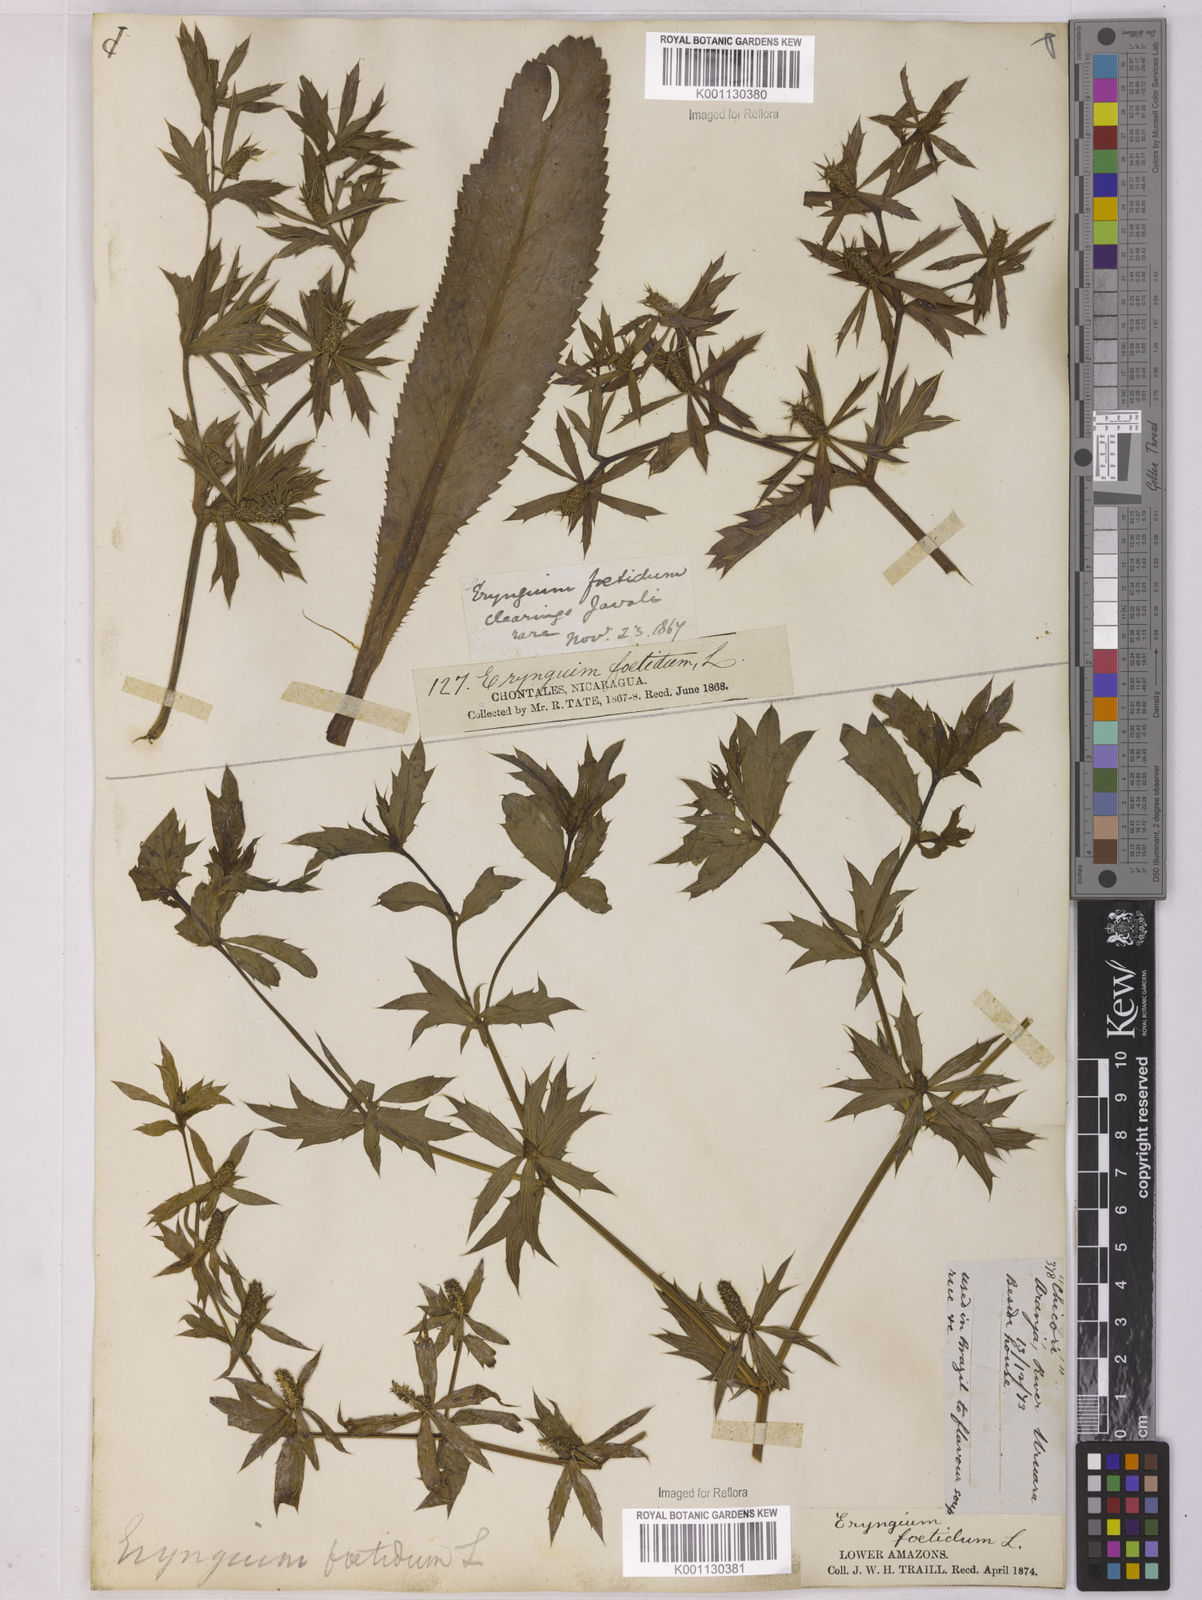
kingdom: Plantae
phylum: Tracheophyta
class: Magnoliopsida
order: Apiales
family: Apiaceae
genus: Eryngium
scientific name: Eryngium foetidum
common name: Fitweed
